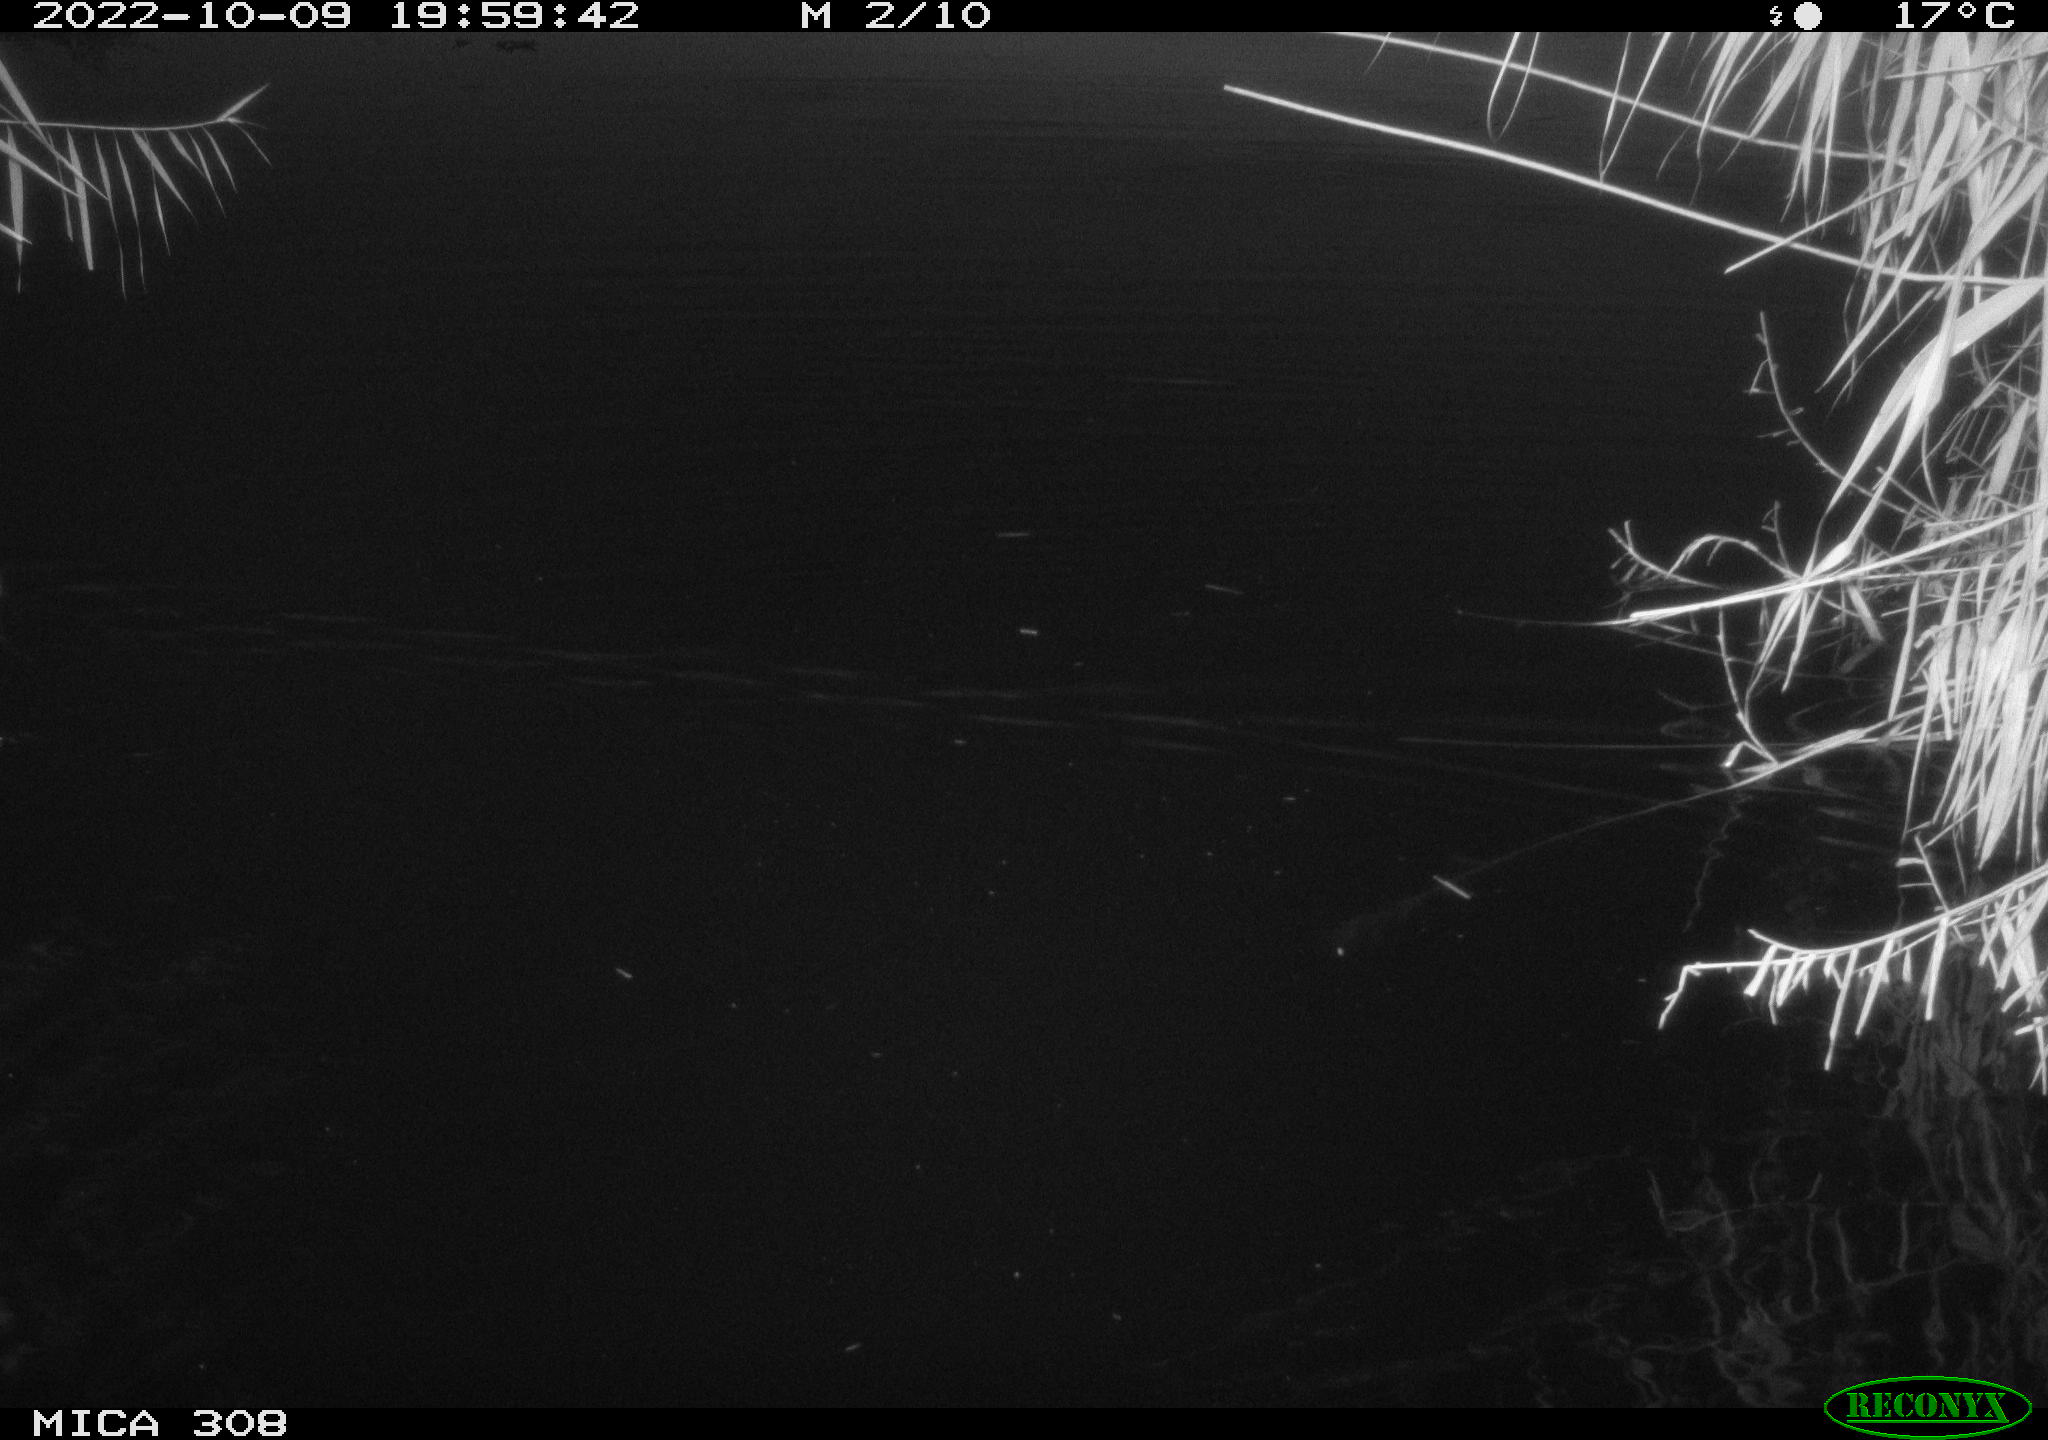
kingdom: Animalia
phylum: Chordata
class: Mammalia
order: Rodentia
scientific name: Rodentia
